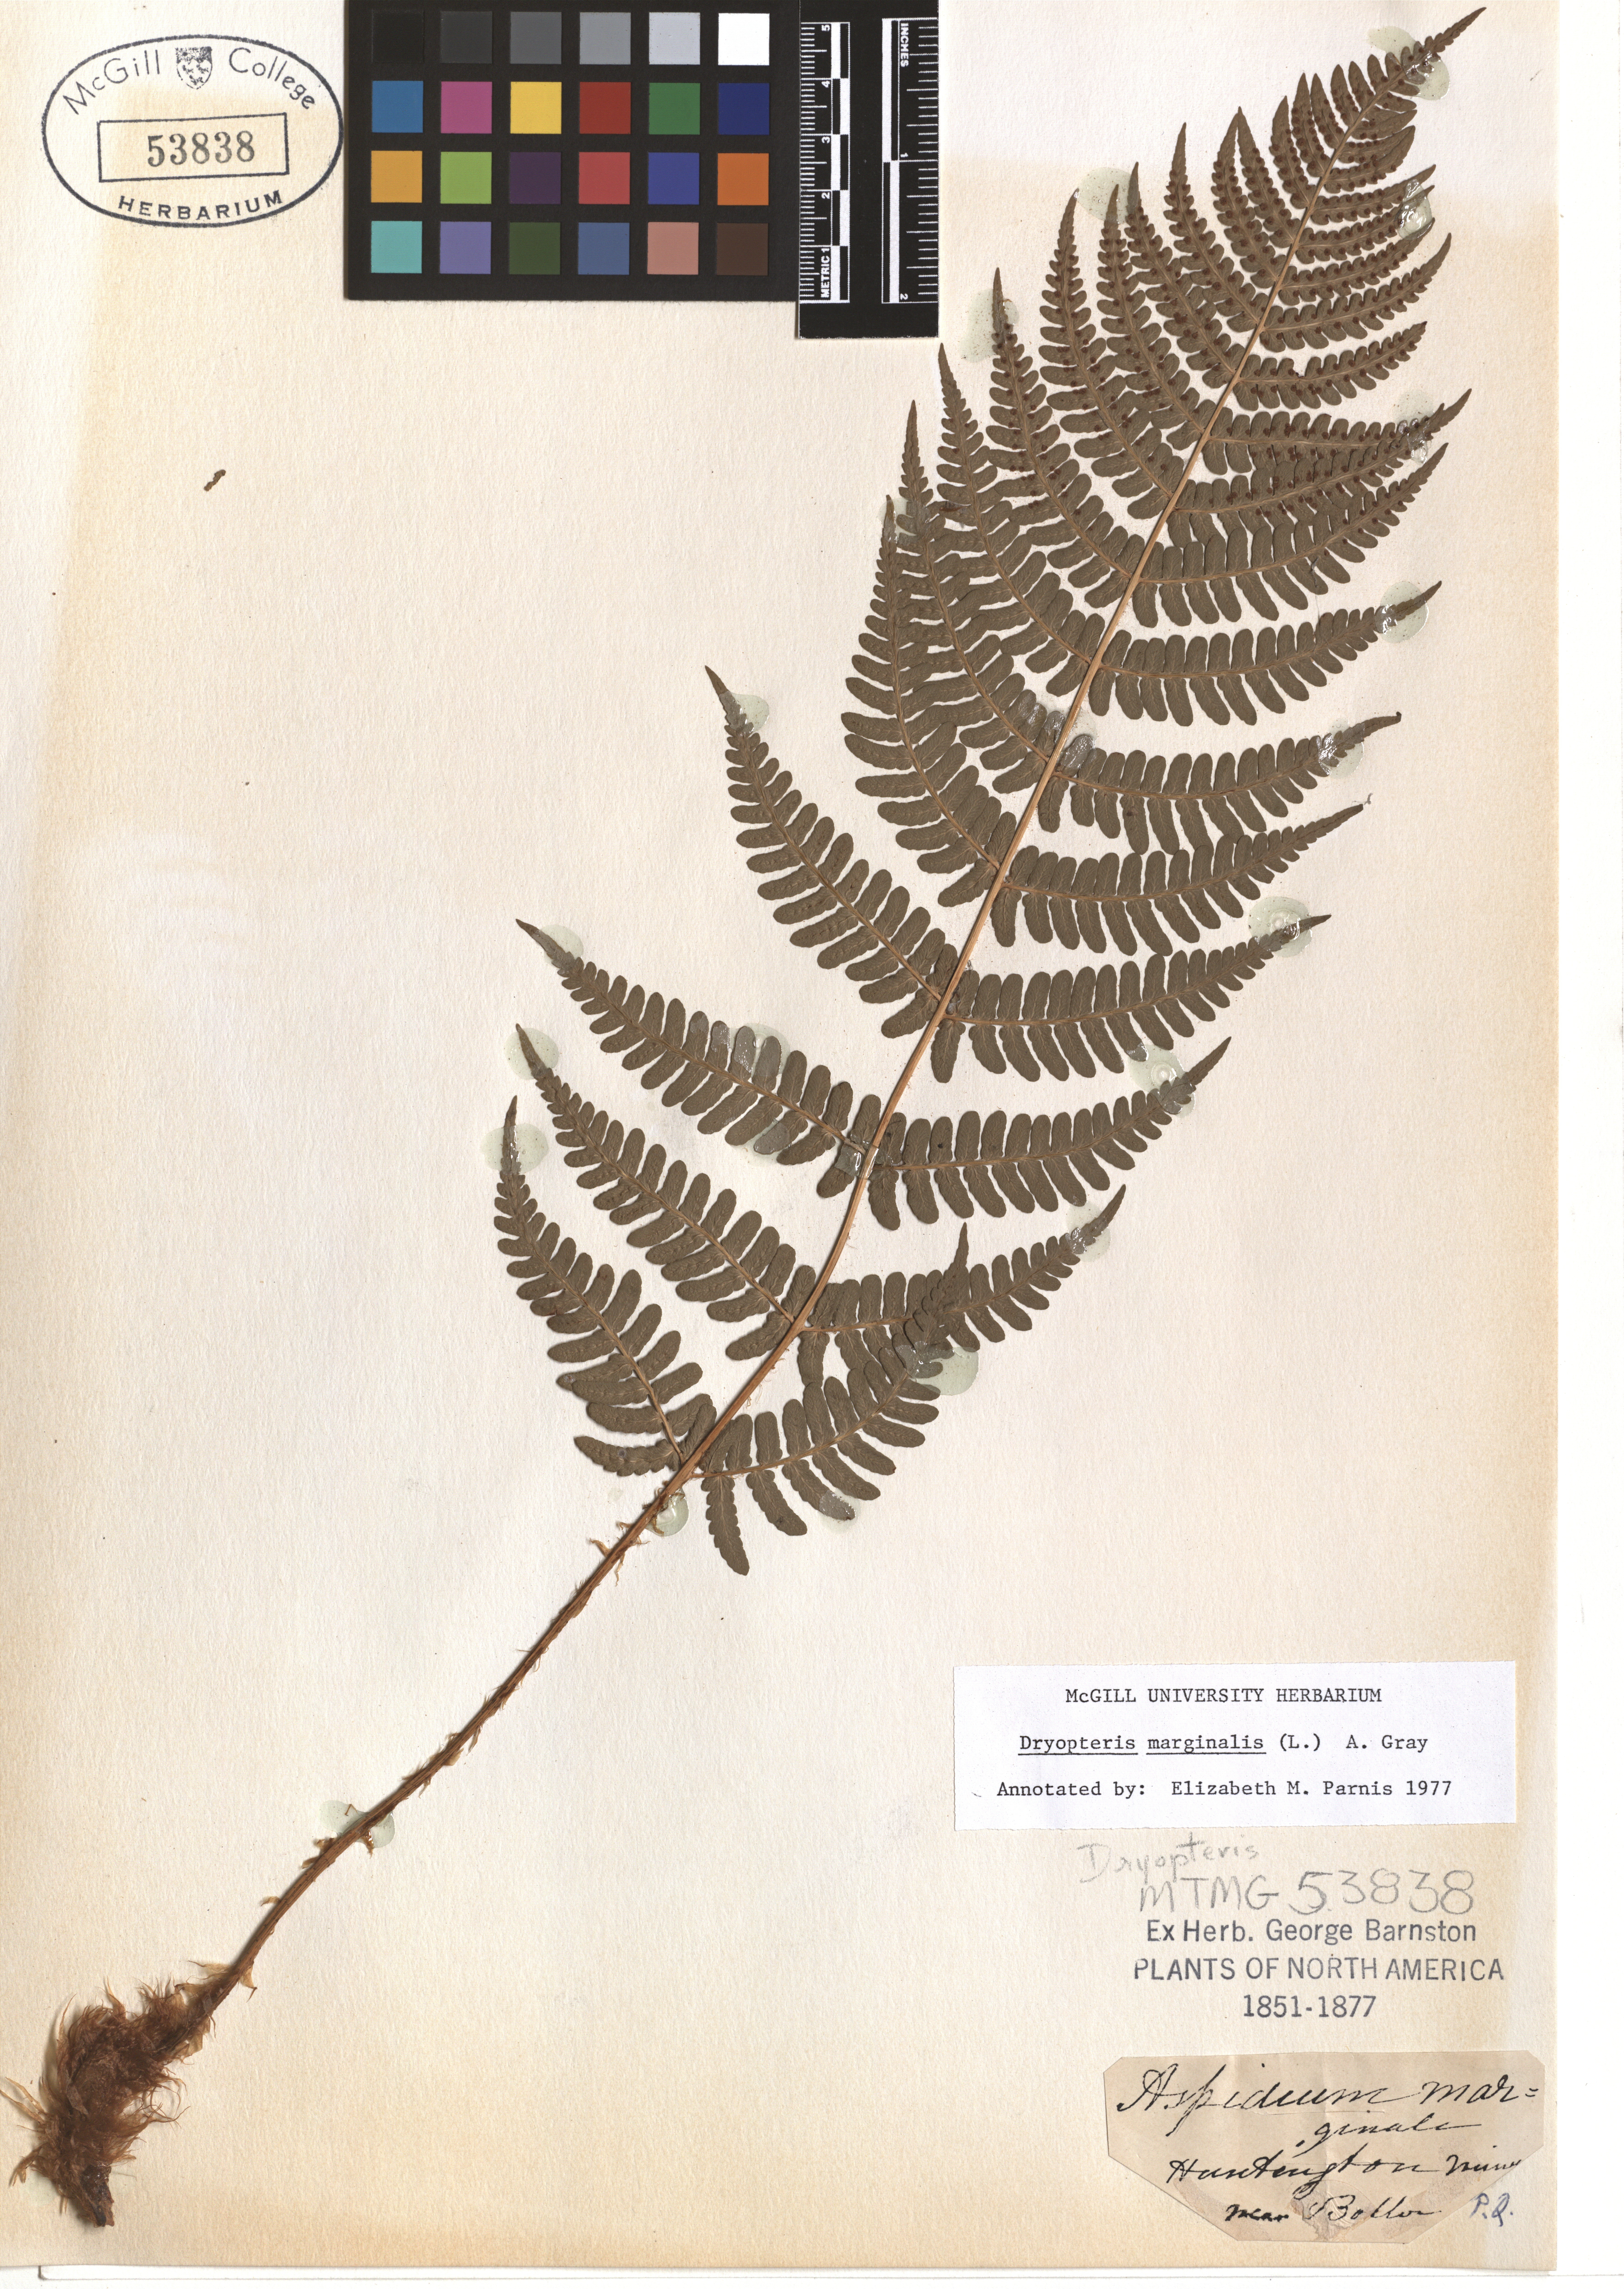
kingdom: Plantae
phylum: Tracheophyta
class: Polypodiopsida
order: Polypodiales
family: Dryopteridaceae
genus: Dryopteris
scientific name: Dryopteris marginalis
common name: Marginal wood fern
